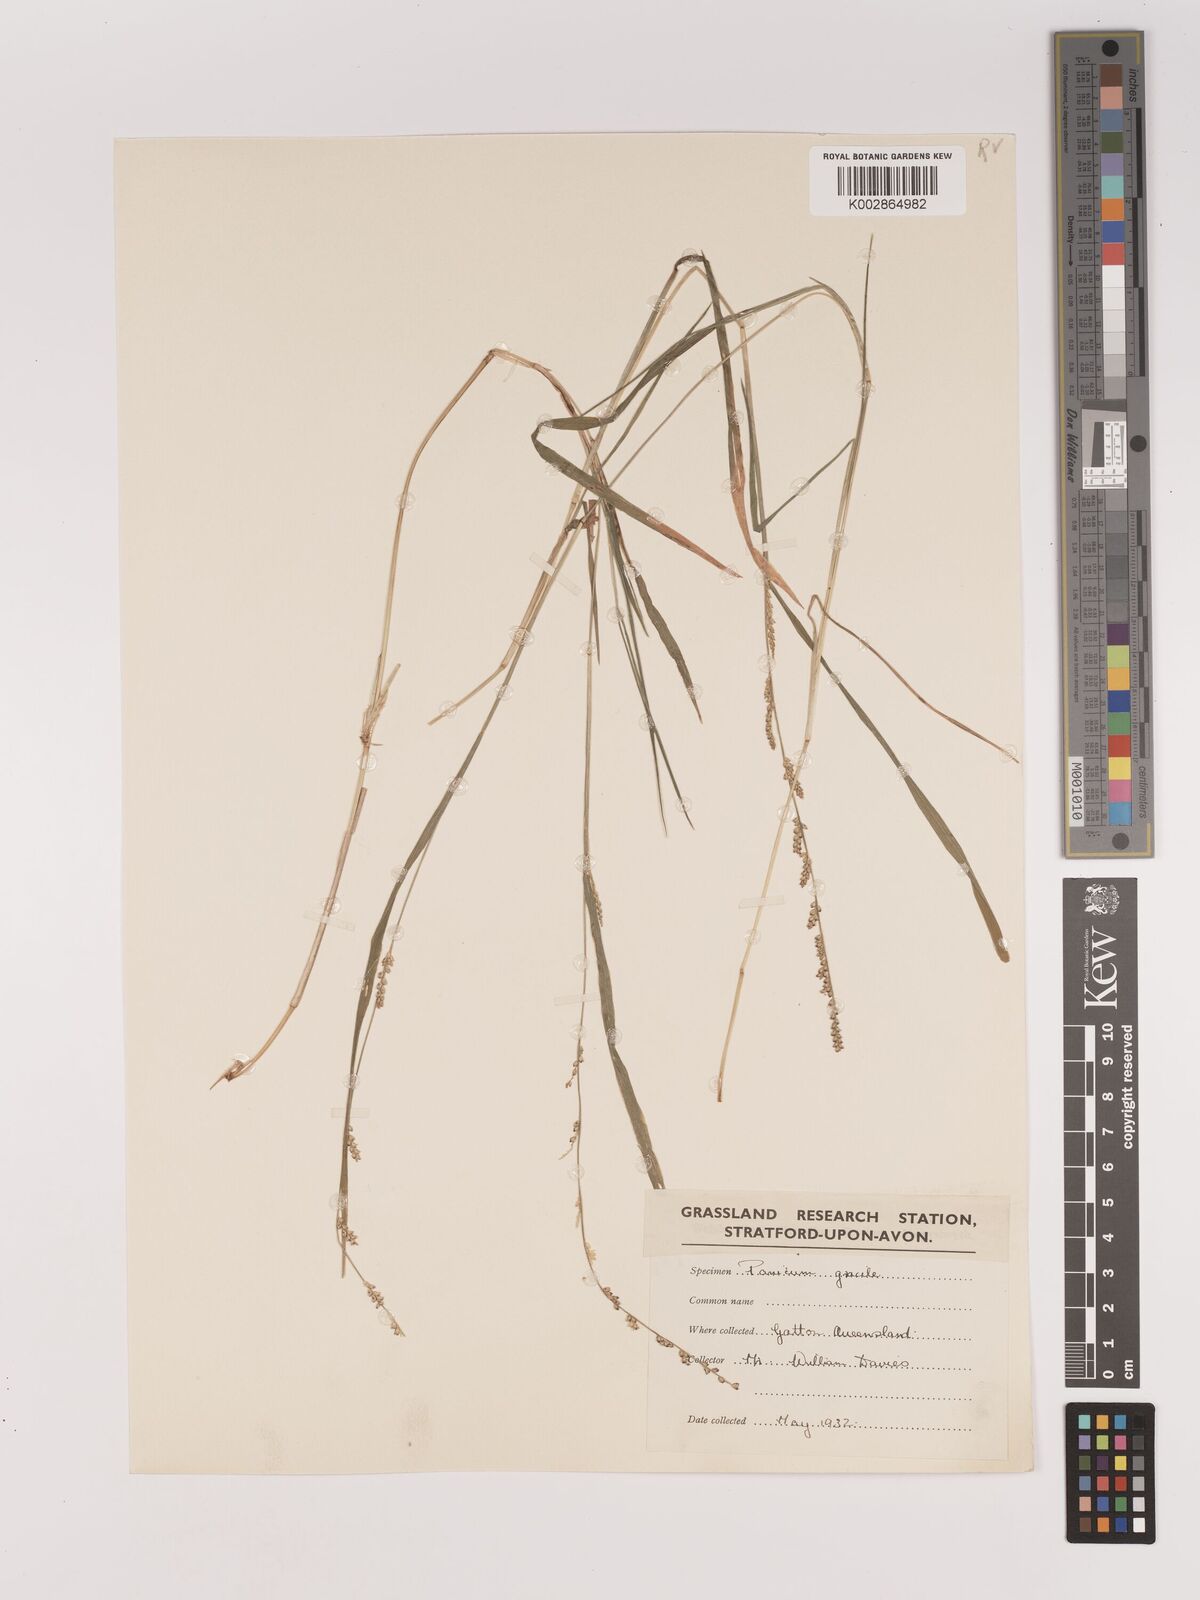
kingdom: Plantae
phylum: Tracheophyta
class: Liliopsida
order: Poales
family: Poaceae
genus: Setaria
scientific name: Setaria
